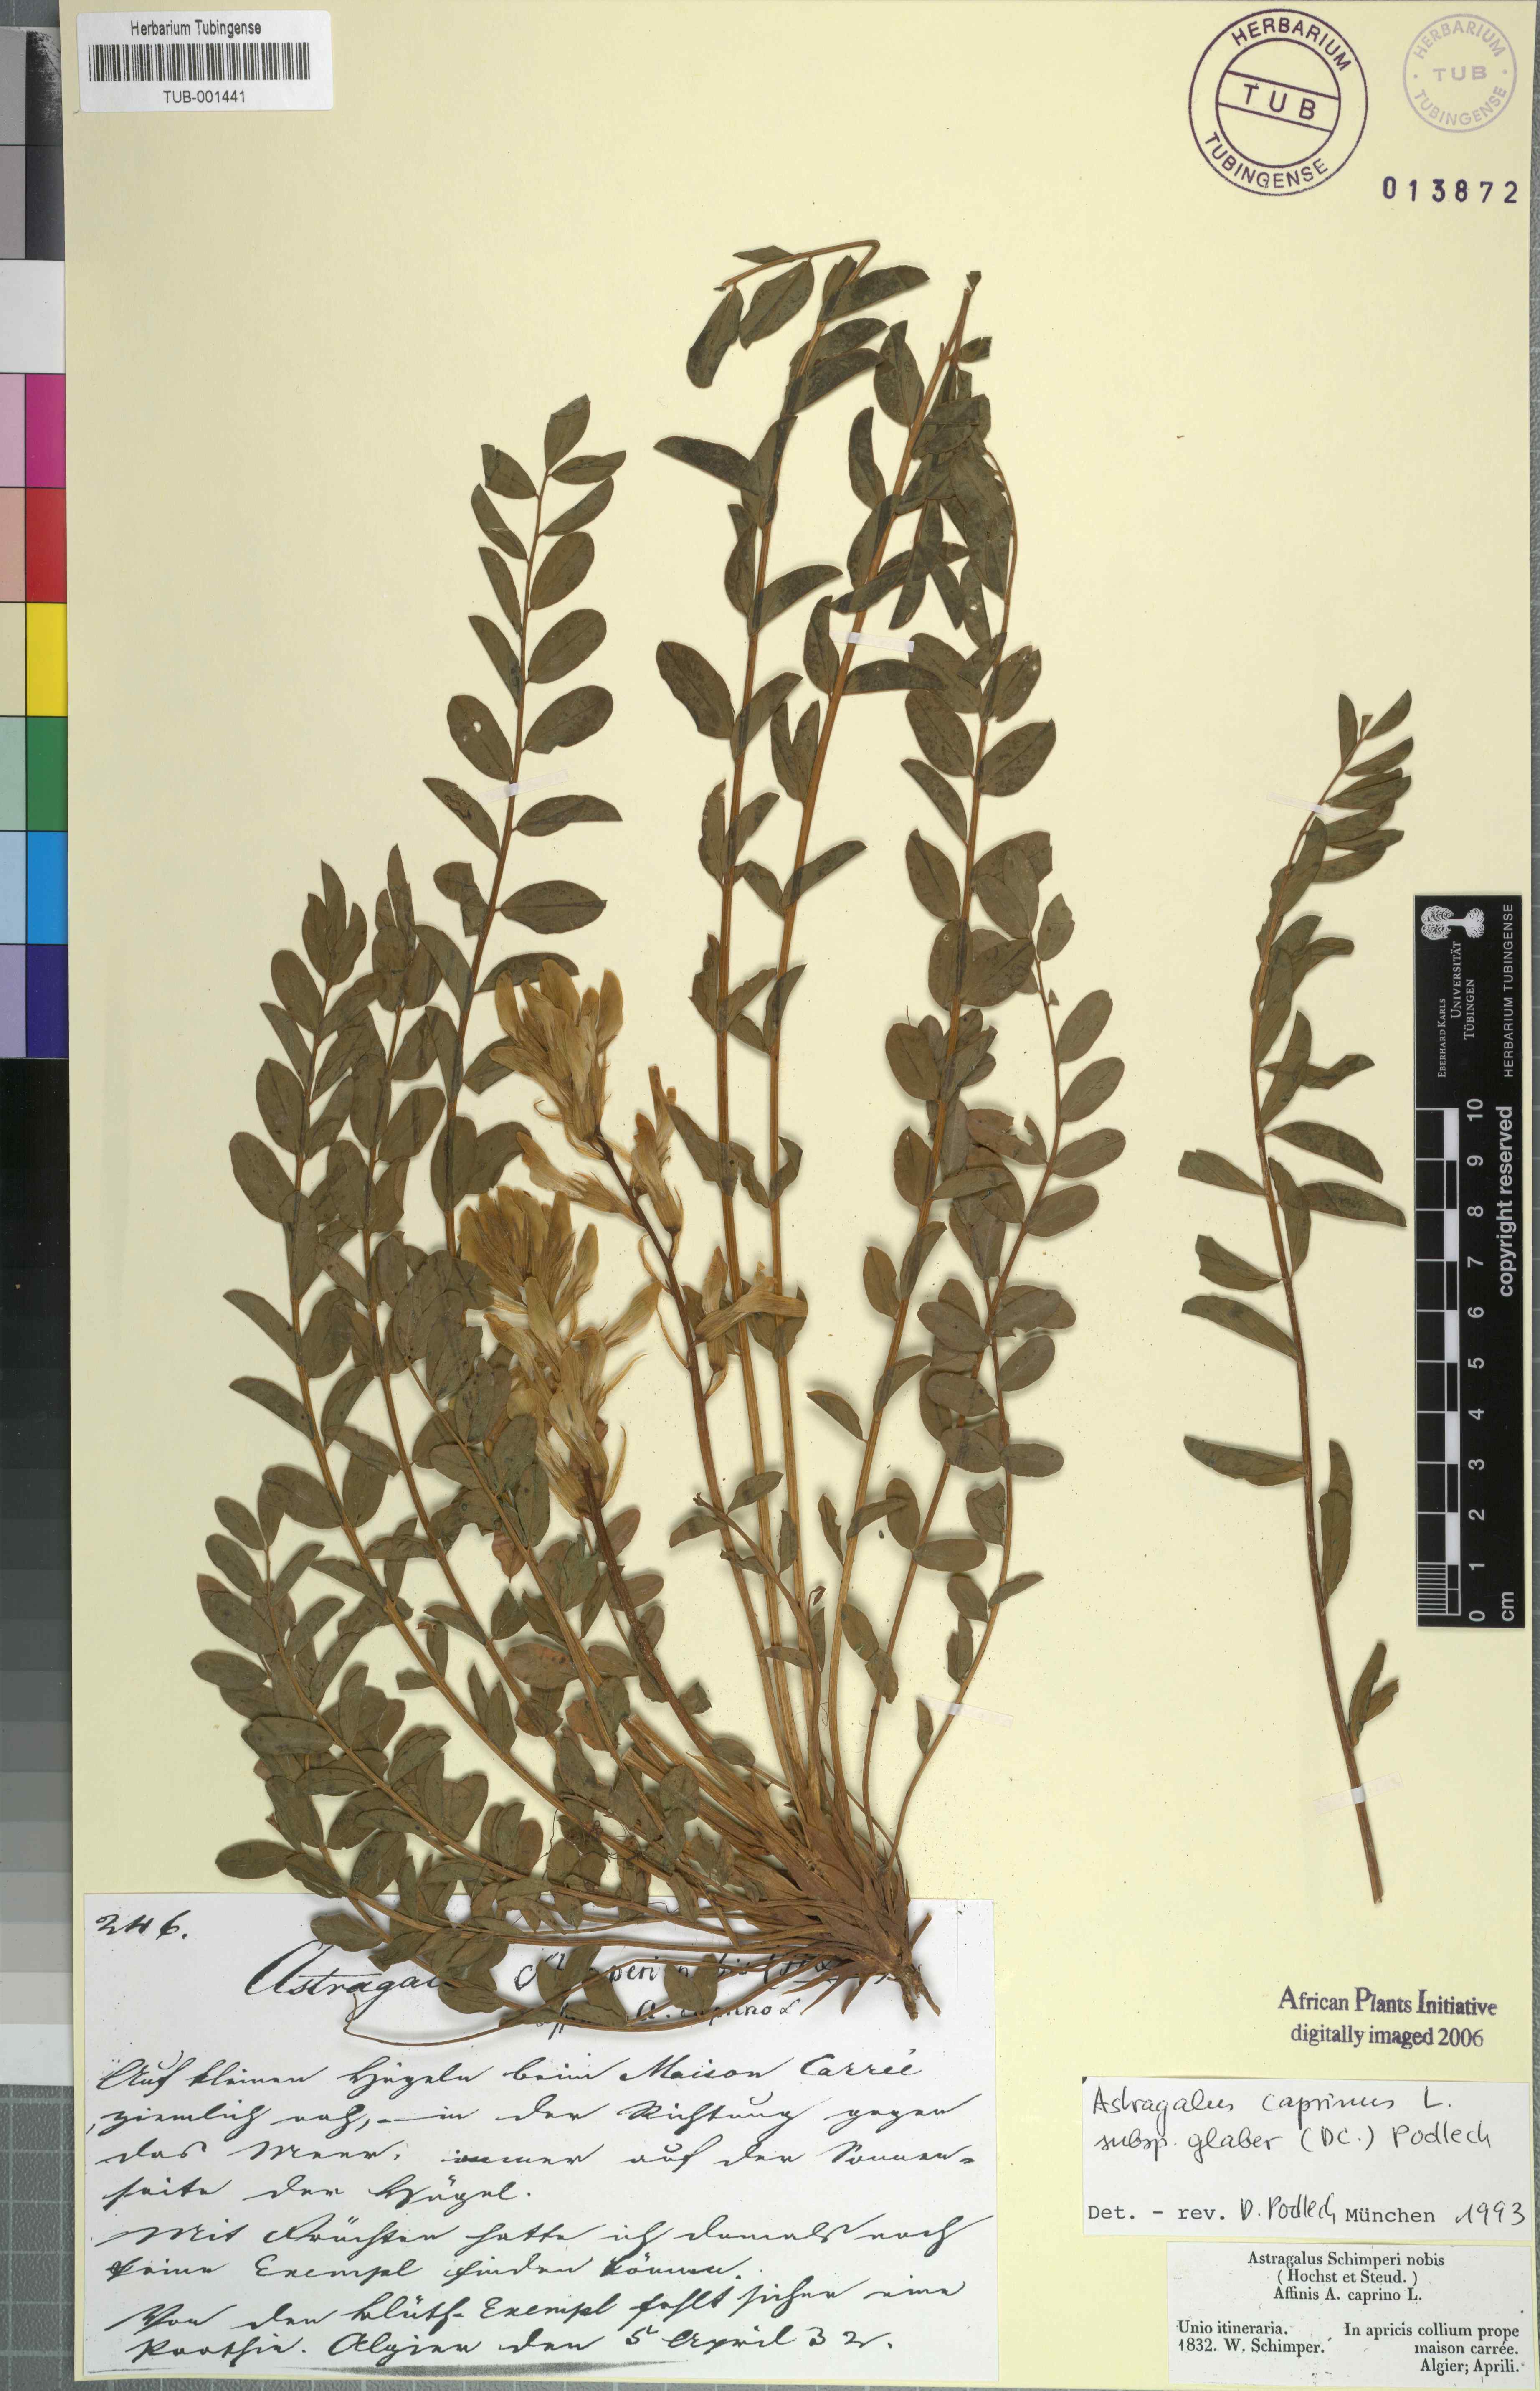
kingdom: Plantae
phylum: Tracheophyta
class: Magnoliopsida
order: Fabales
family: Fabaceae
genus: Astragalus
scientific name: Astragalus caprinus
